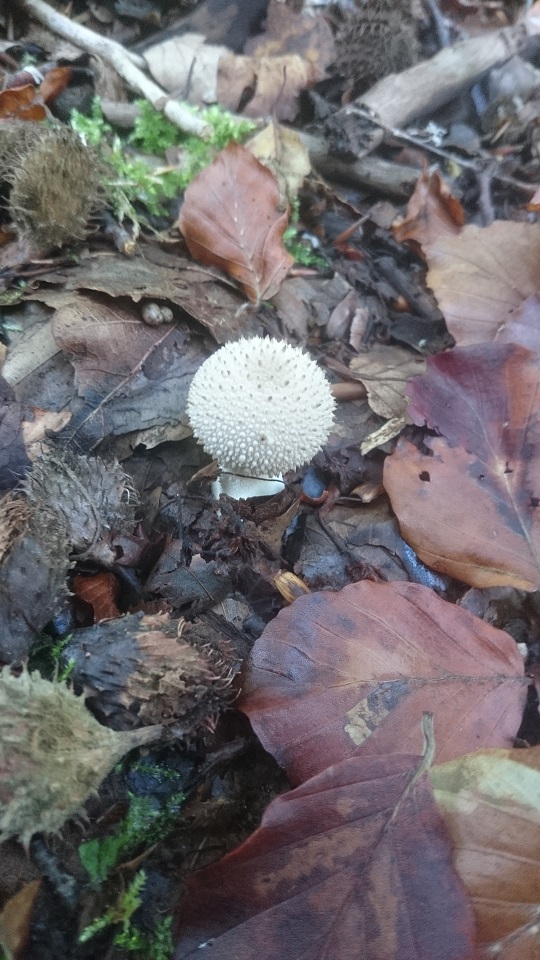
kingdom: Fungi
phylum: Basidiomycota
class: Agaricomycetes
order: Agaricales
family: Lycoperdaceae
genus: Lycoperdon
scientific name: Lycoperdon perlatum
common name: krystal-støvbold
